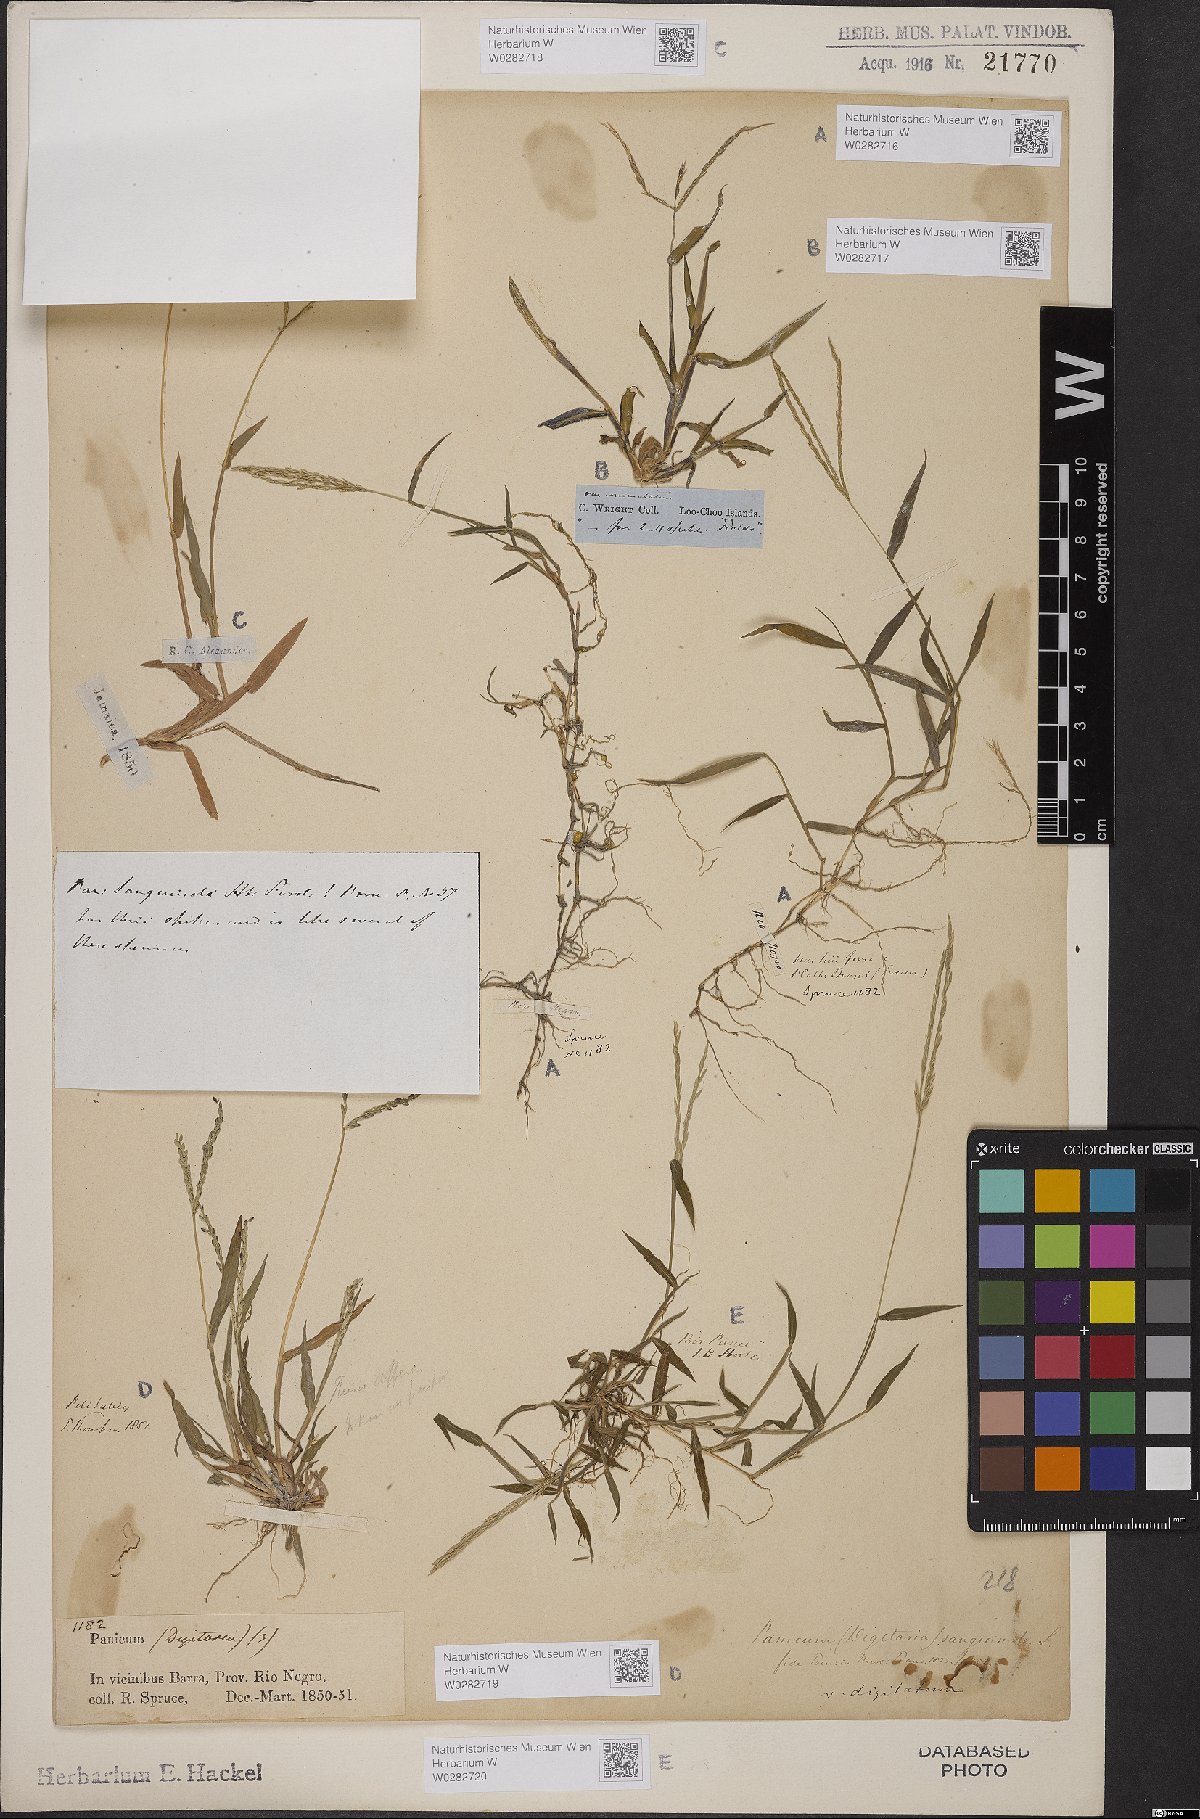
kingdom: Plantae
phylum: Tracheophyta
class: Liliopsida
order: Poales
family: Poaceae
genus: Digitaria
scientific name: Digitaria sanguinalis
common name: Hairy crabgrass
